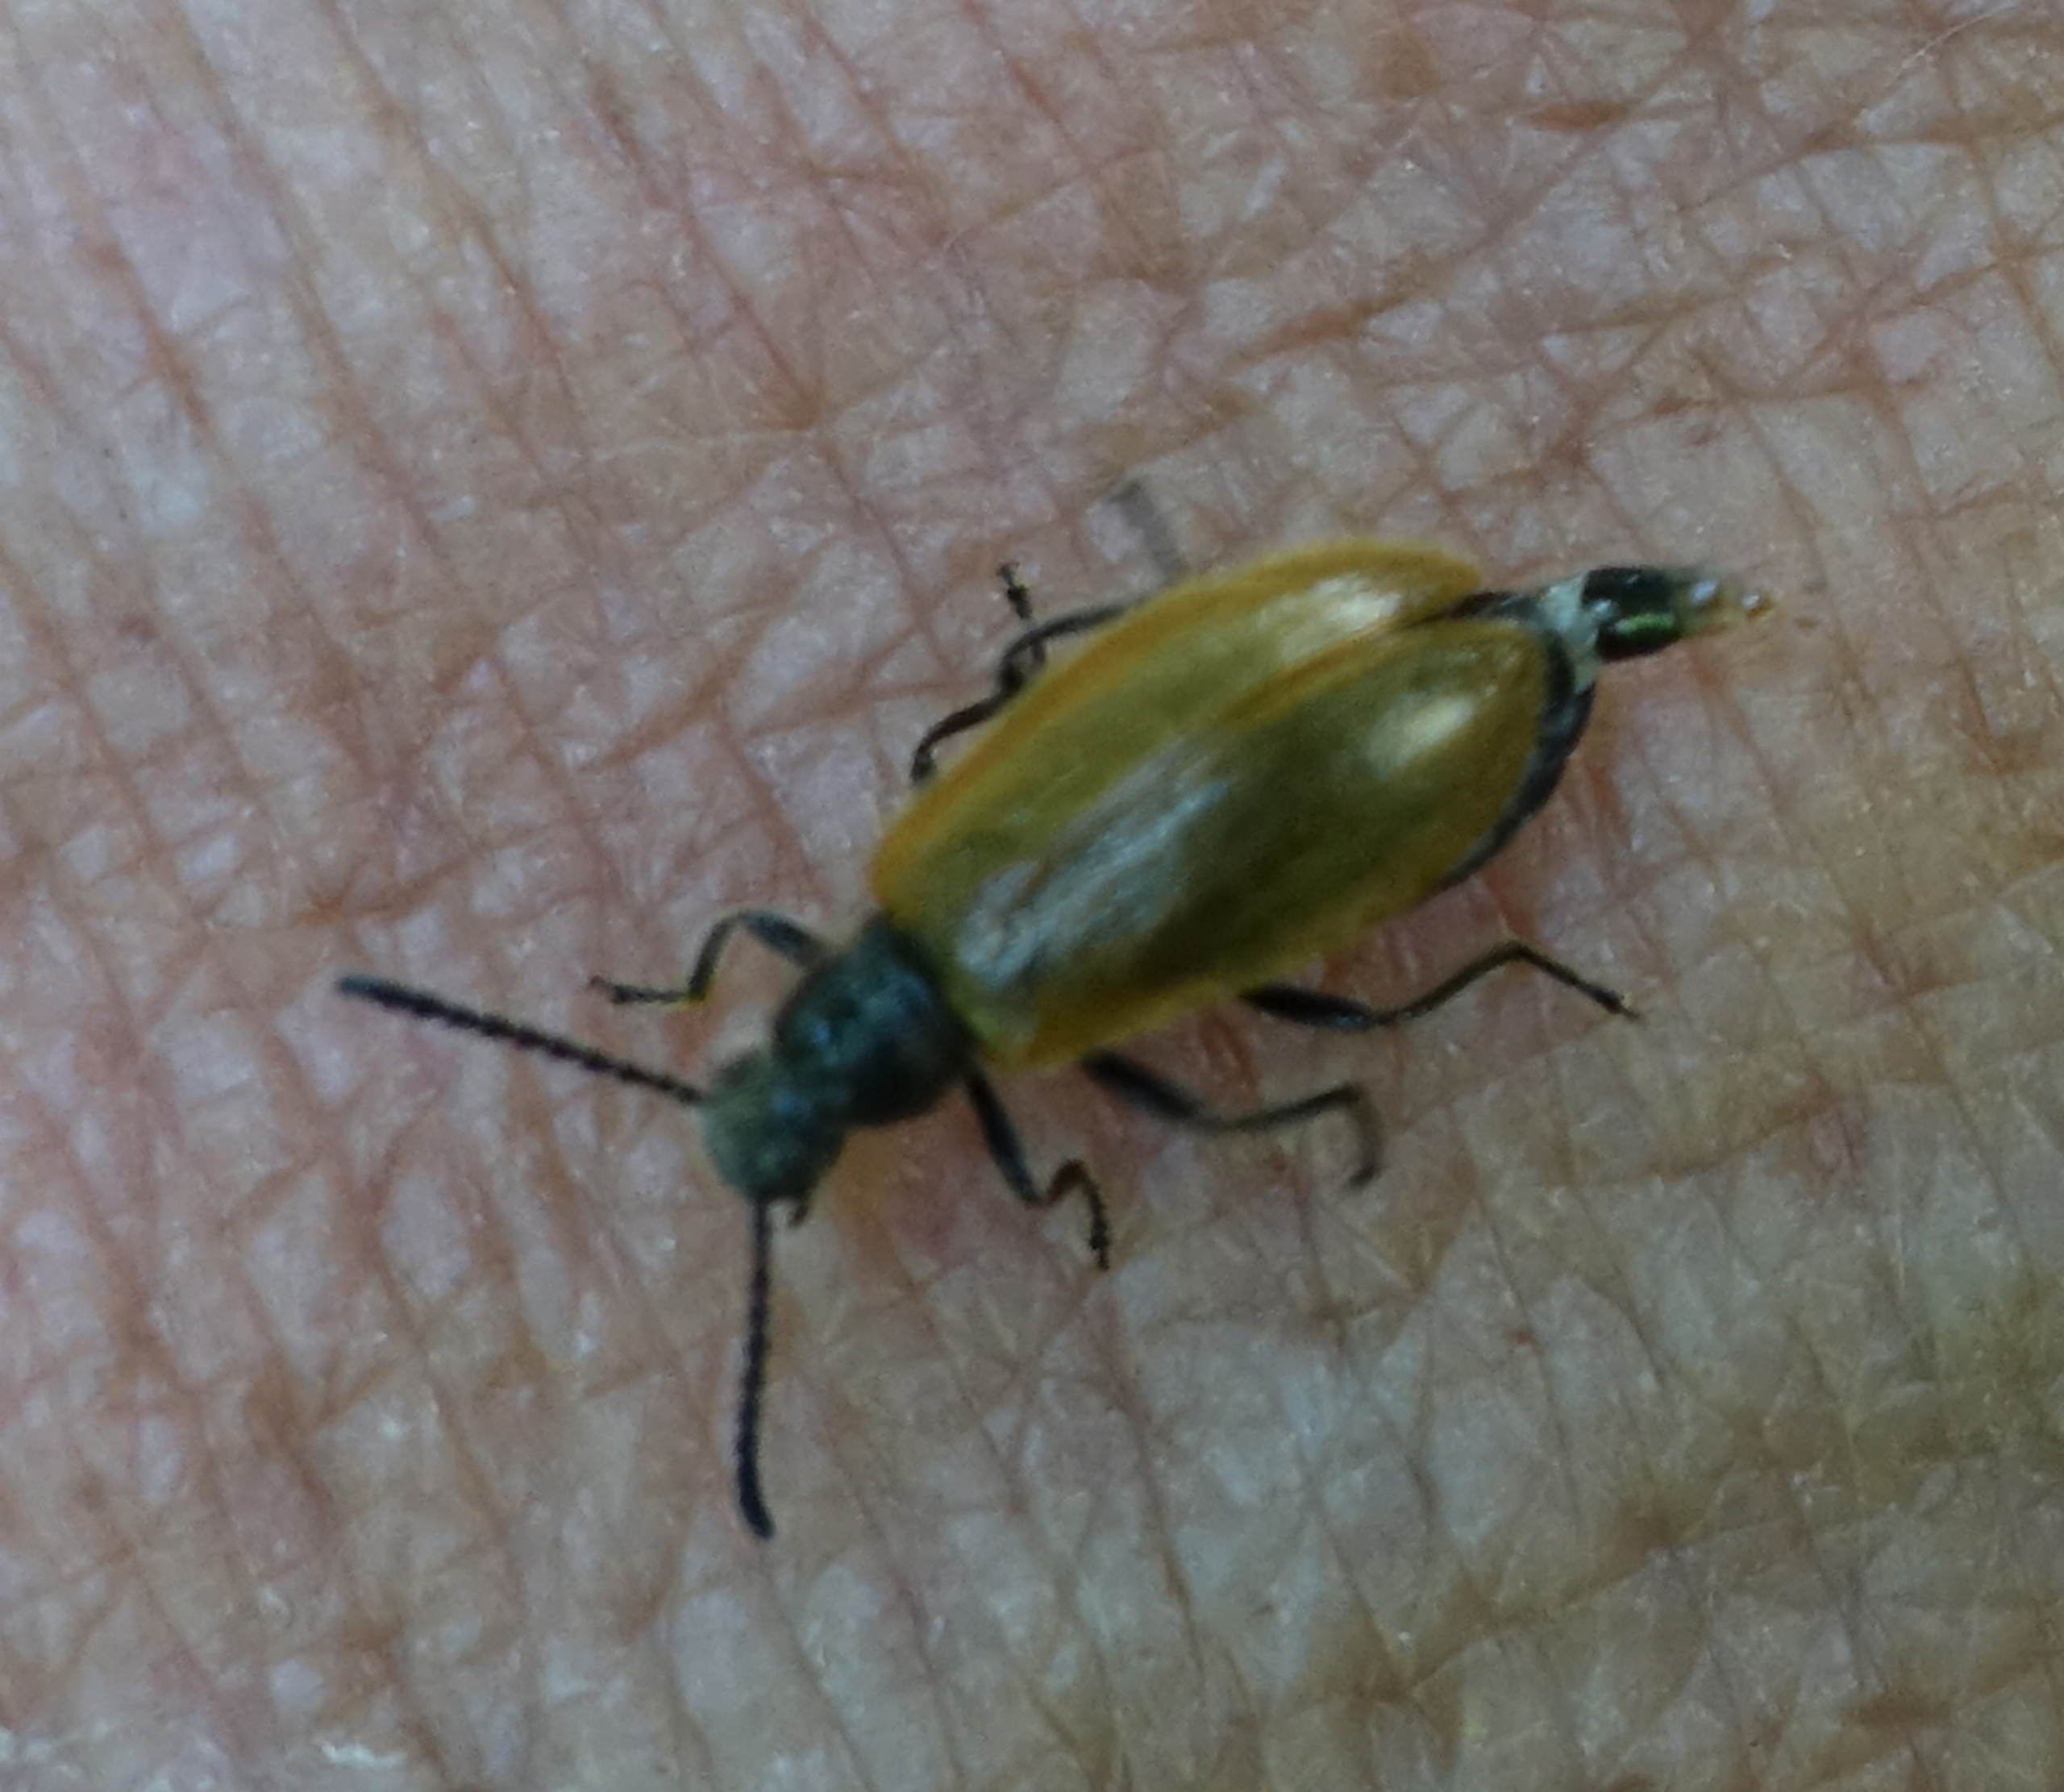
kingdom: Animalia
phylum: Arthropoda
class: Insecta
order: Coleoptera
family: Tenebrionidae
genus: Lagria
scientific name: Lagria hirta
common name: Håret skyggebille
